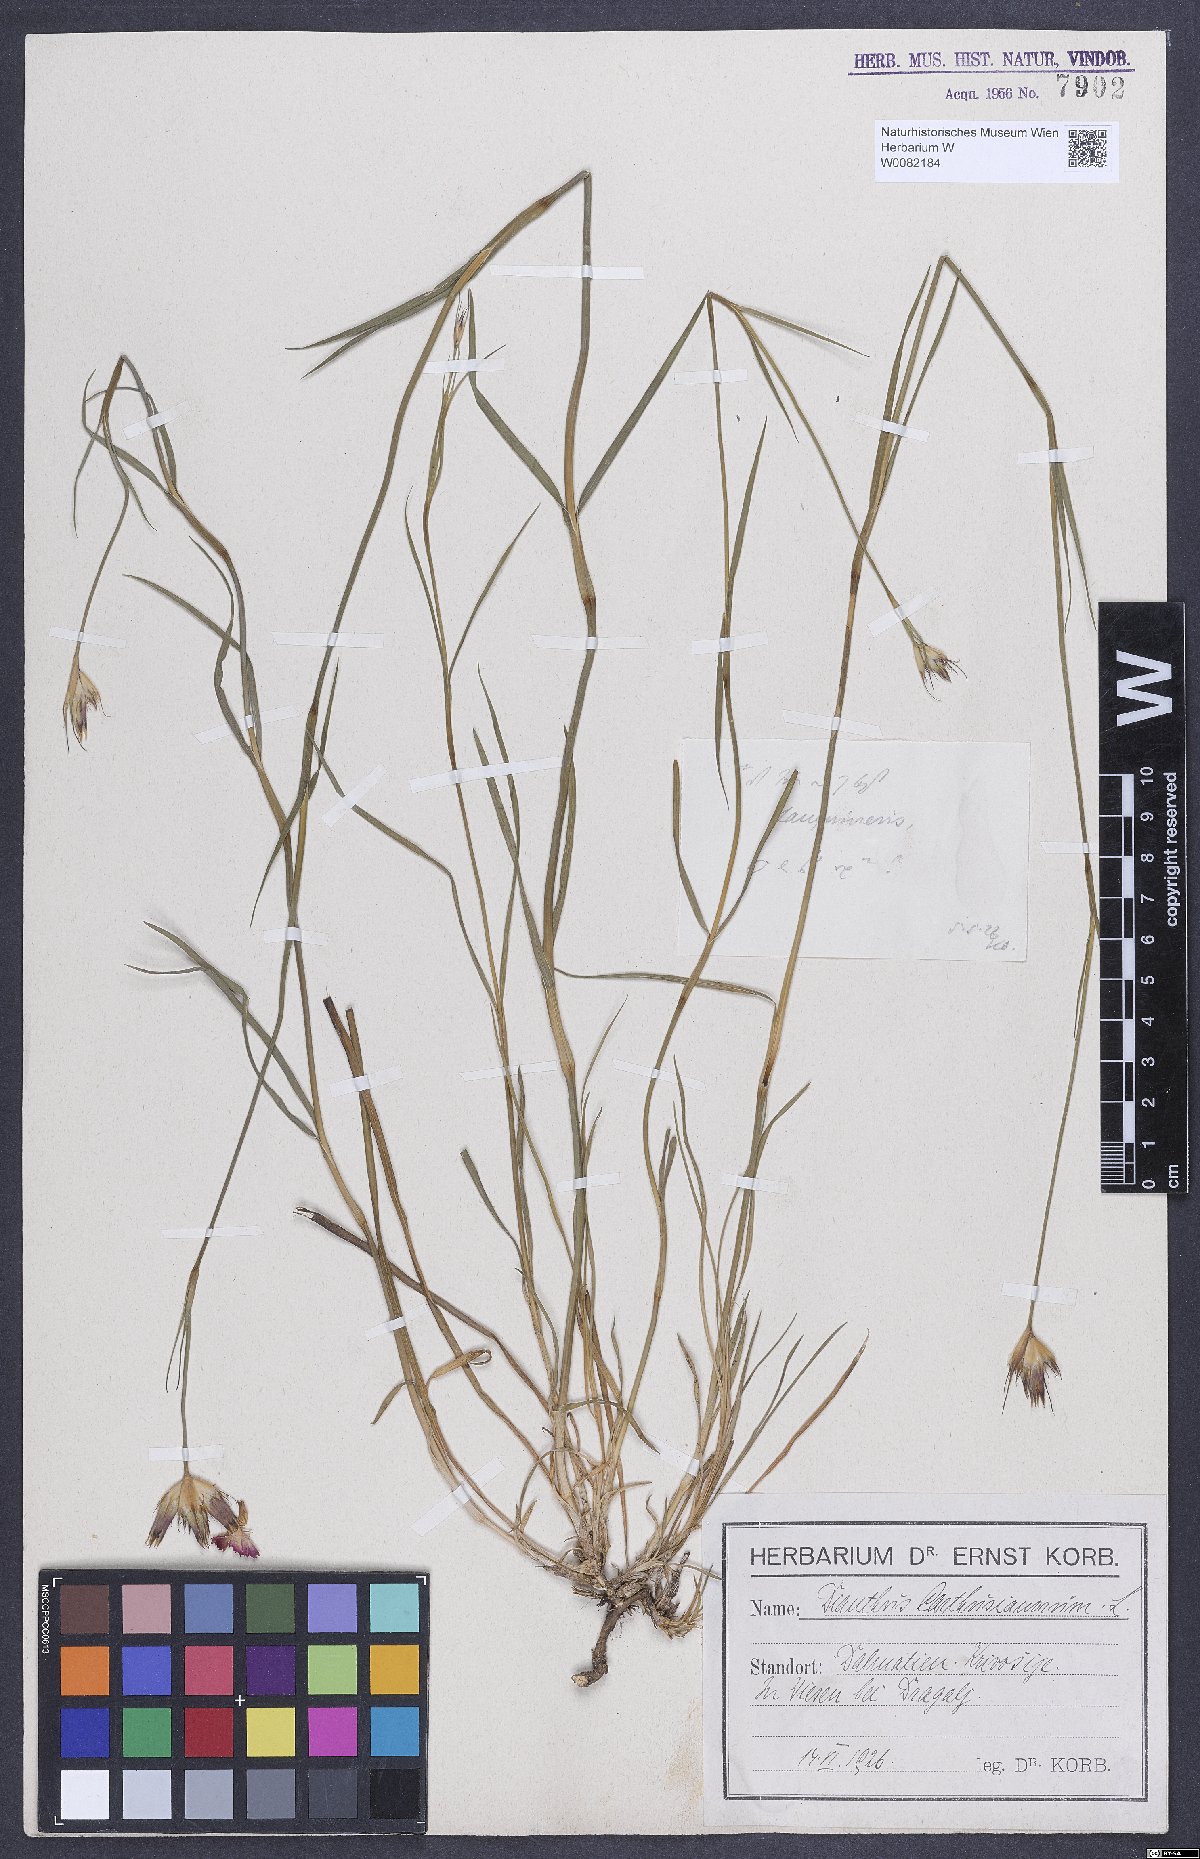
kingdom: Plantae
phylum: Tracheophyta
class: Magnoliopsida
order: Caryophyllales
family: Caryophyllaceae
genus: Dianthus
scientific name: Dianthus carthusianorum
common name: Carthusian pink
